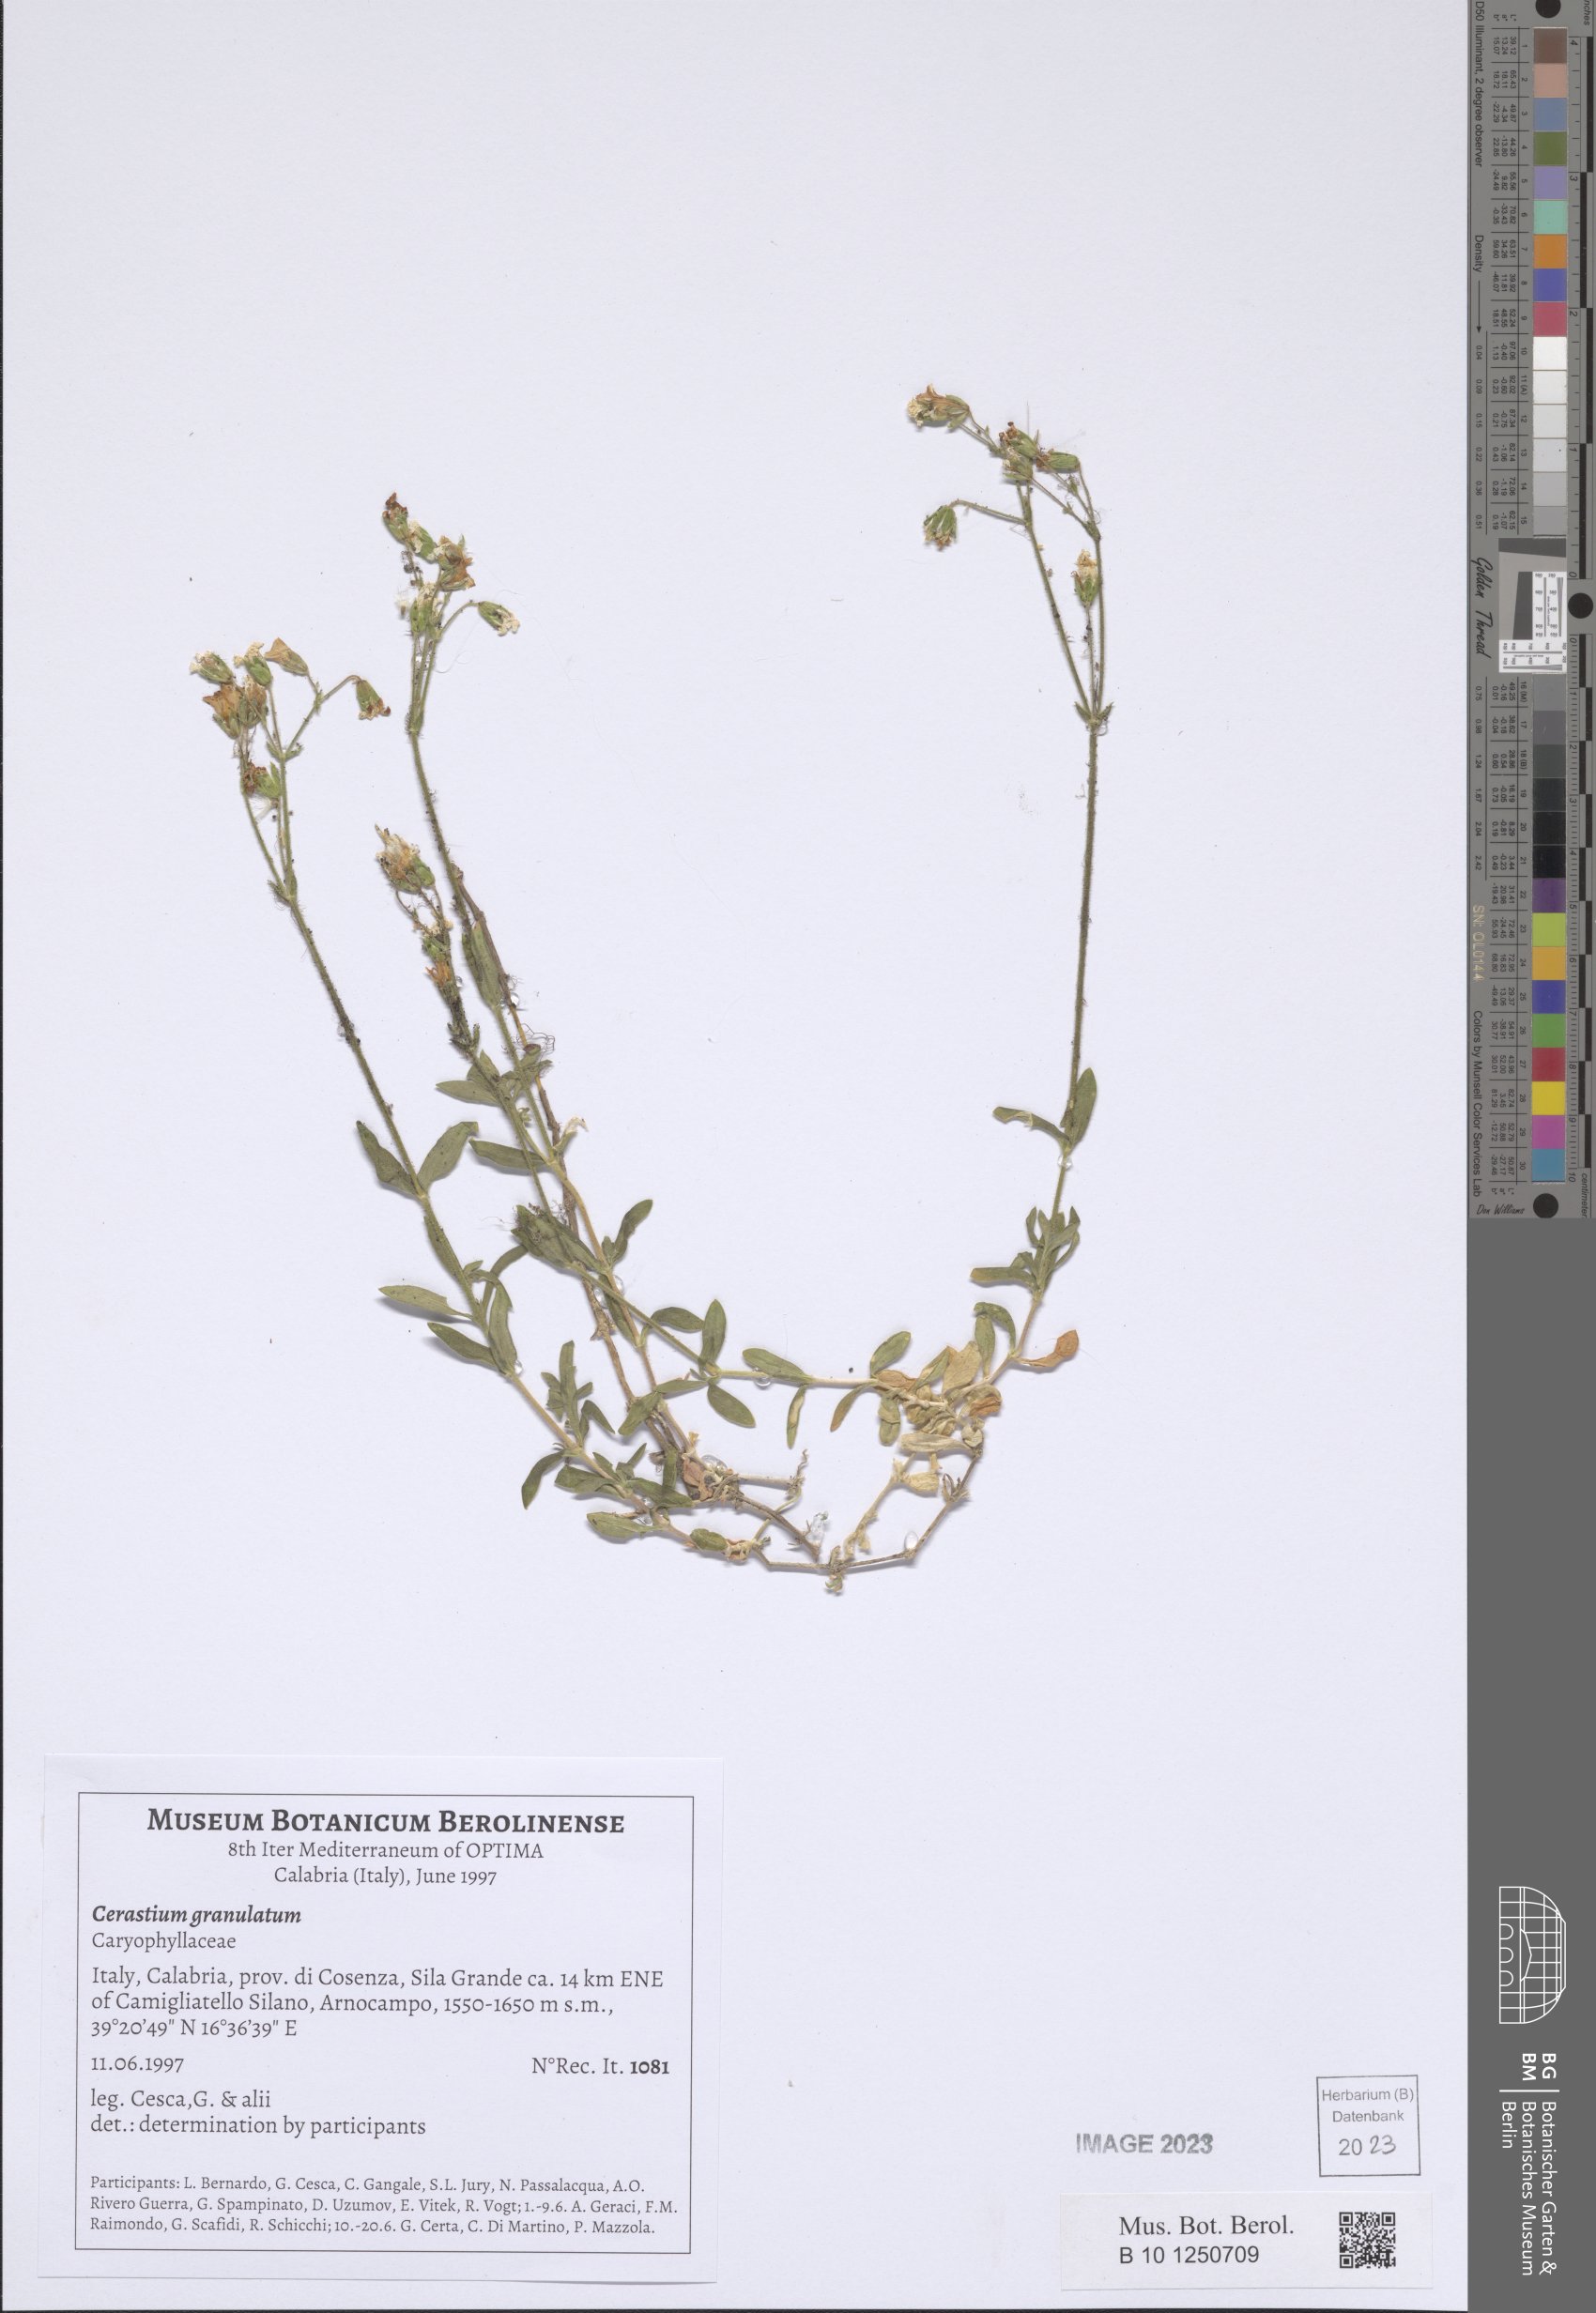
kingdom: Plantae
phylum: Tracheophyta
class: Magnoliopsida
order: Caryophyllales
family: Caryophyllaceae
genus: Cerastium
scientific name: Cerastium ligusticum
